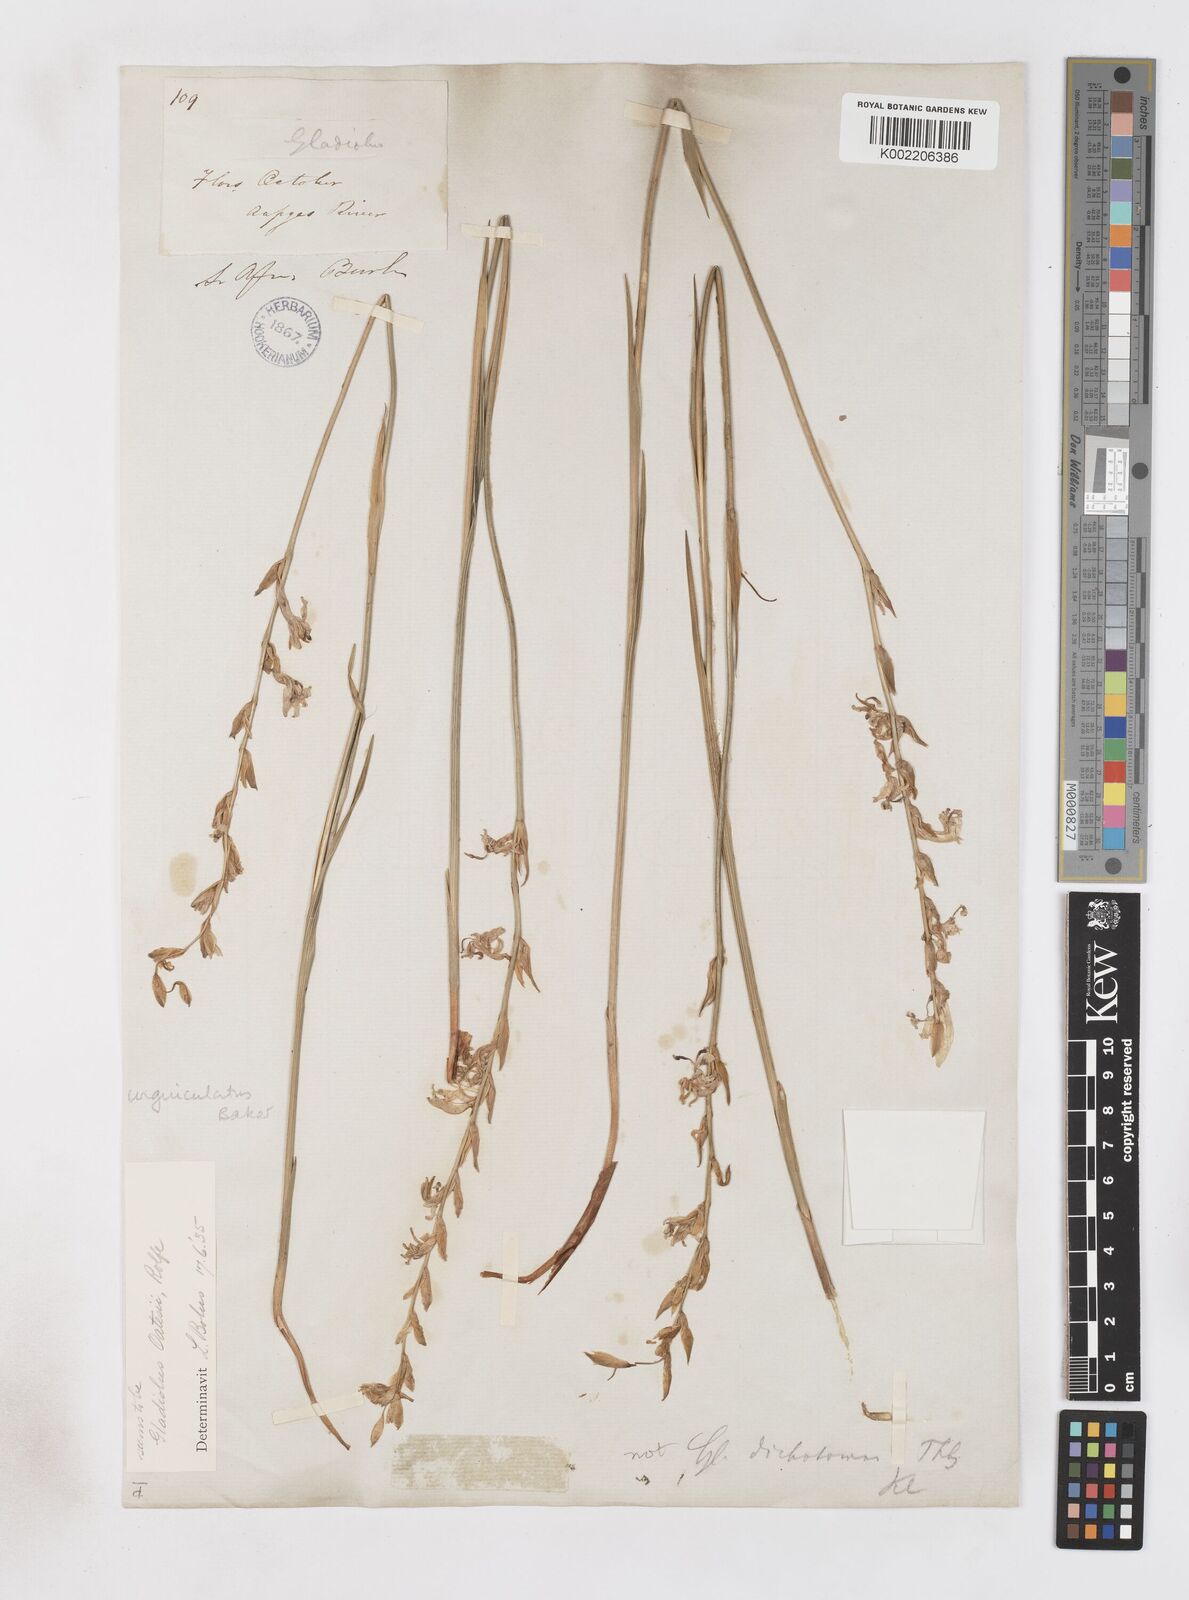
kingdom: Plantae
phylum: Tracheophyta
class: Liliopsida
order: Asparagales
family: Iridaceae
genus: Gladiolus
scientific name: Gladiolus unguiculatus
